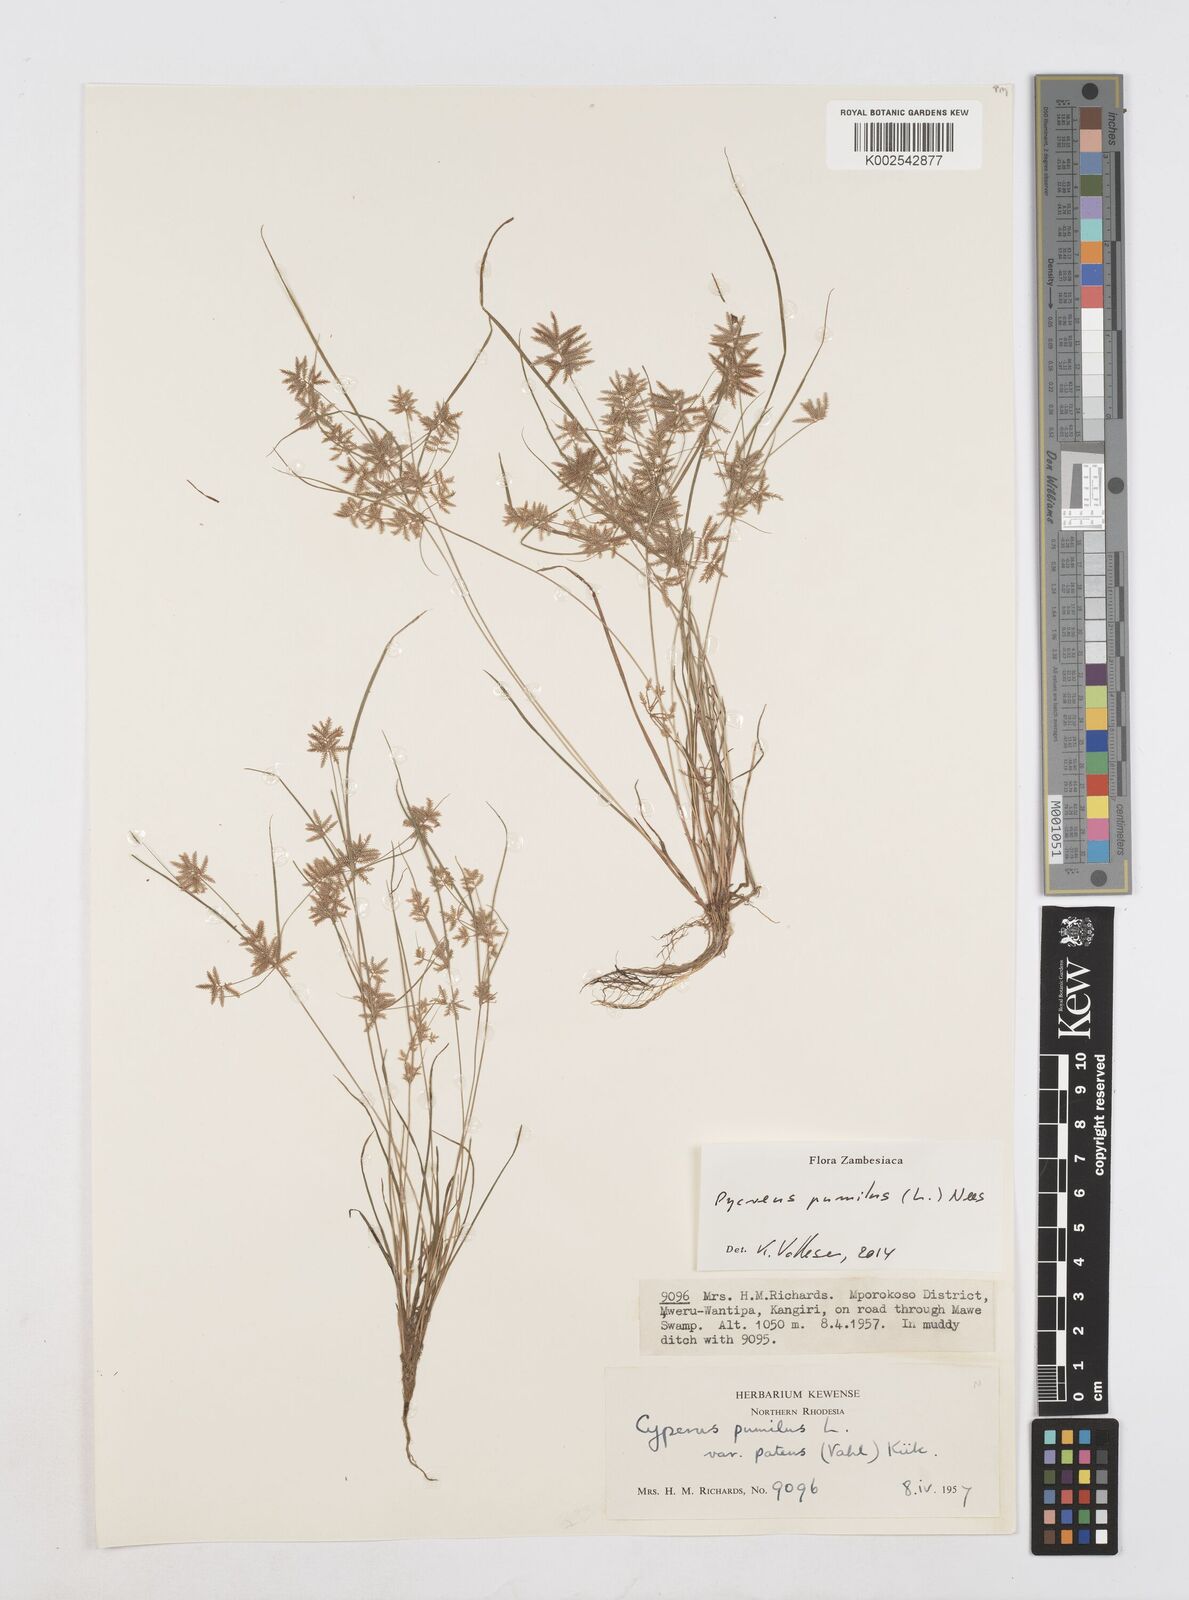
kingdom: Plantae
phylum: Tracheophyta
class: Liliopsida
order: Poales
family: Cyperaceae
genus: Cyperus
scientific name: Cyperus pumilus
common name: Low flatsedge
